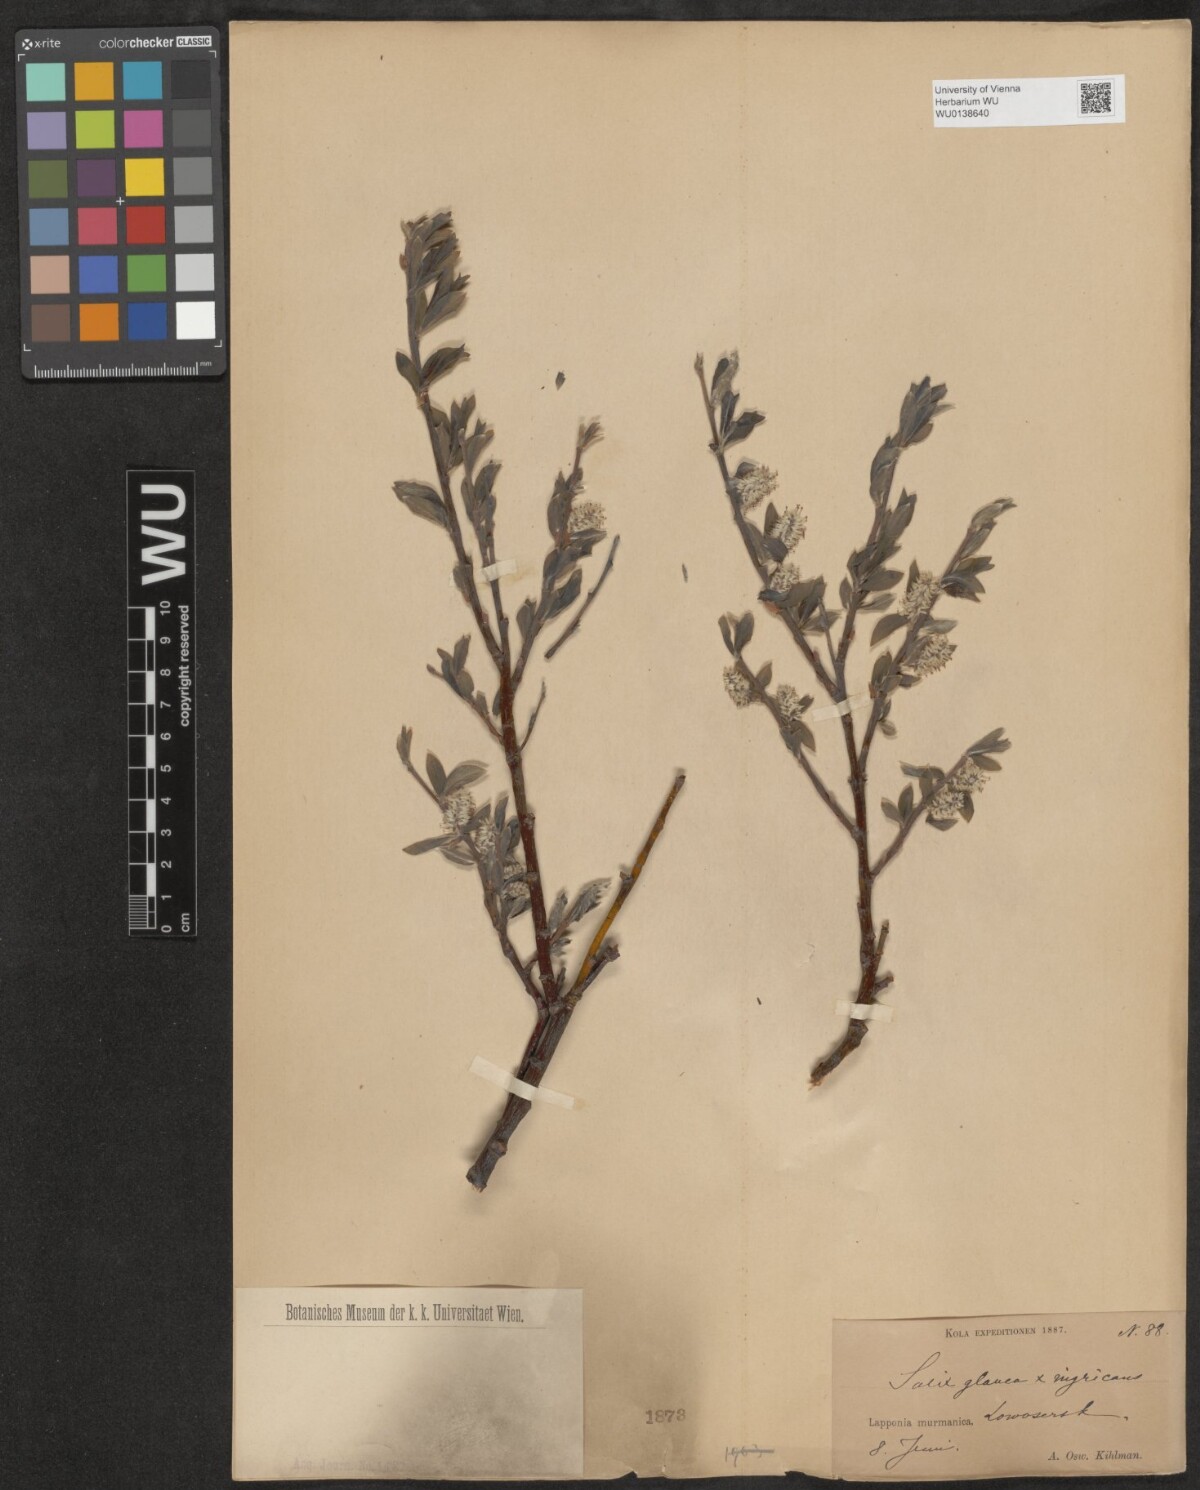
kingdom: Plantae
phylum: Tracheophyta
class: Magnoliopsida
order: Malpighiales
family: Salicaceae
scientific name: Salicaceae
